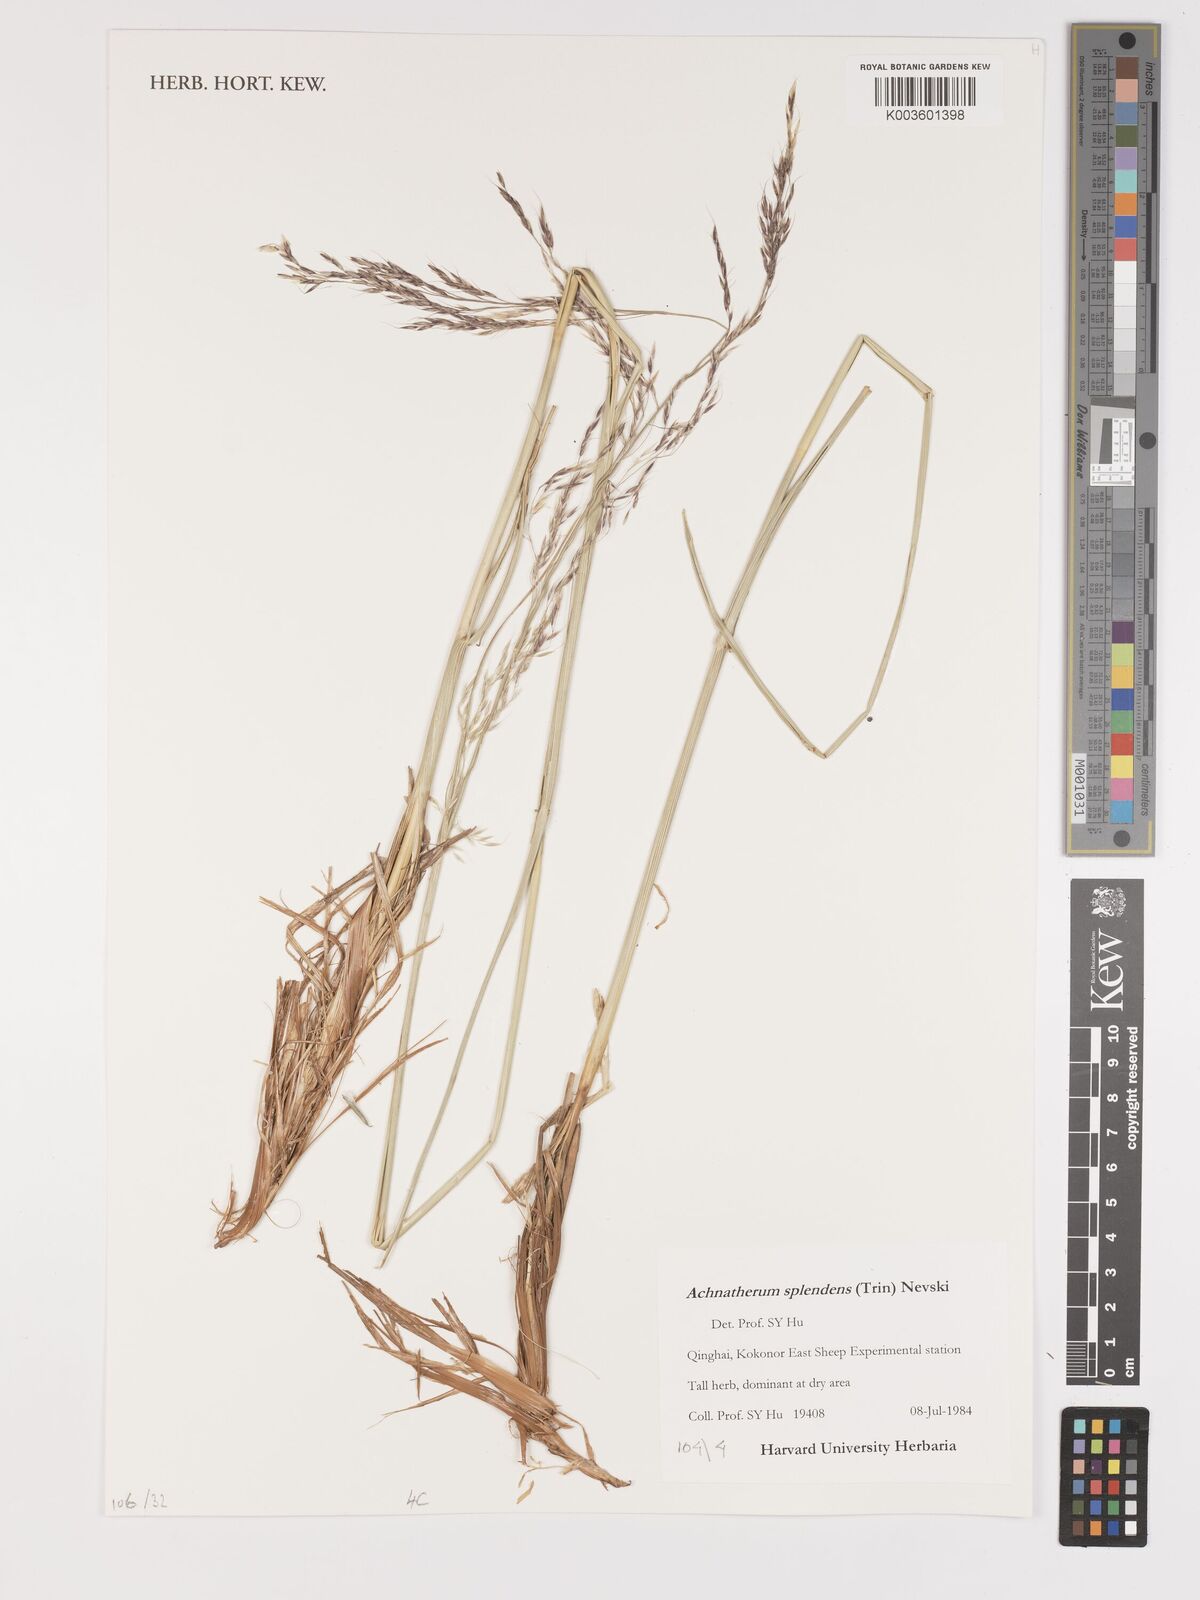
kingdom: Plantae
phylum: Tracheophyta
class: Liliopsida
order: Poales
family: Poaceae
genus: Neotrinia
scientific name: Neotrinia splendens
